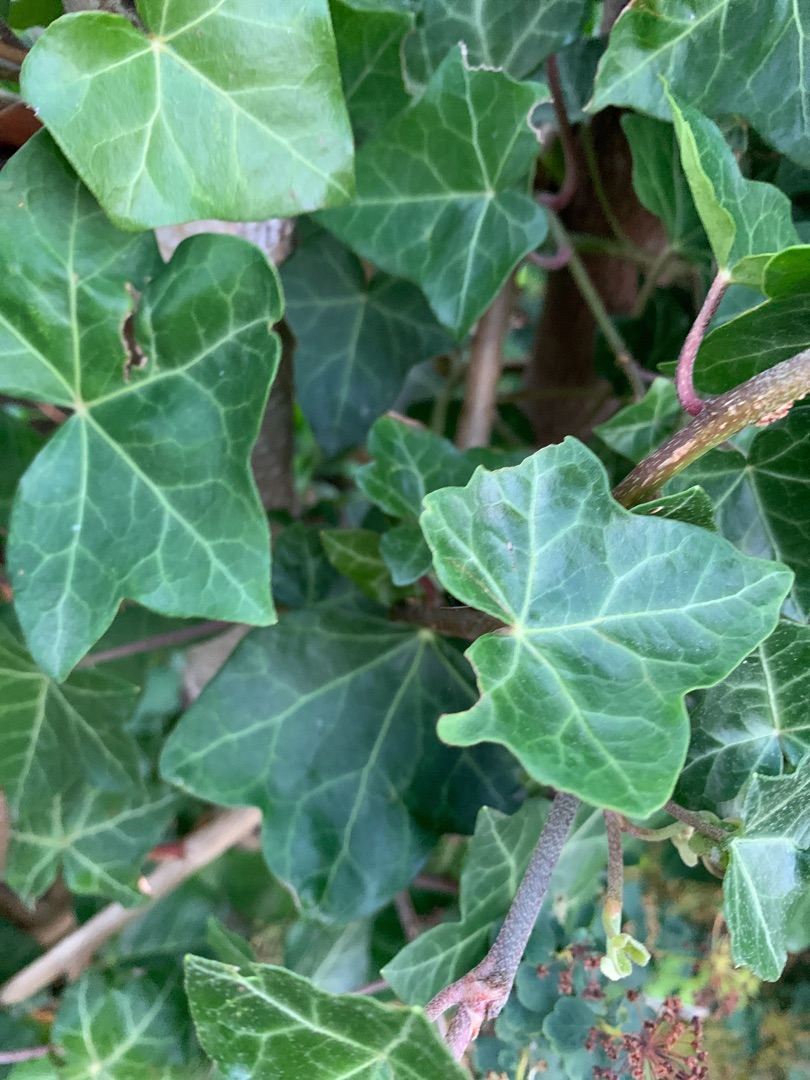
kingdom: Plantae
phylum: Tracheophyta
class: Magnoliopsida
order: Apiales
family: Araliaceae
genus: Hedera
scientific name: Hedera helix
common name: Vedbend
